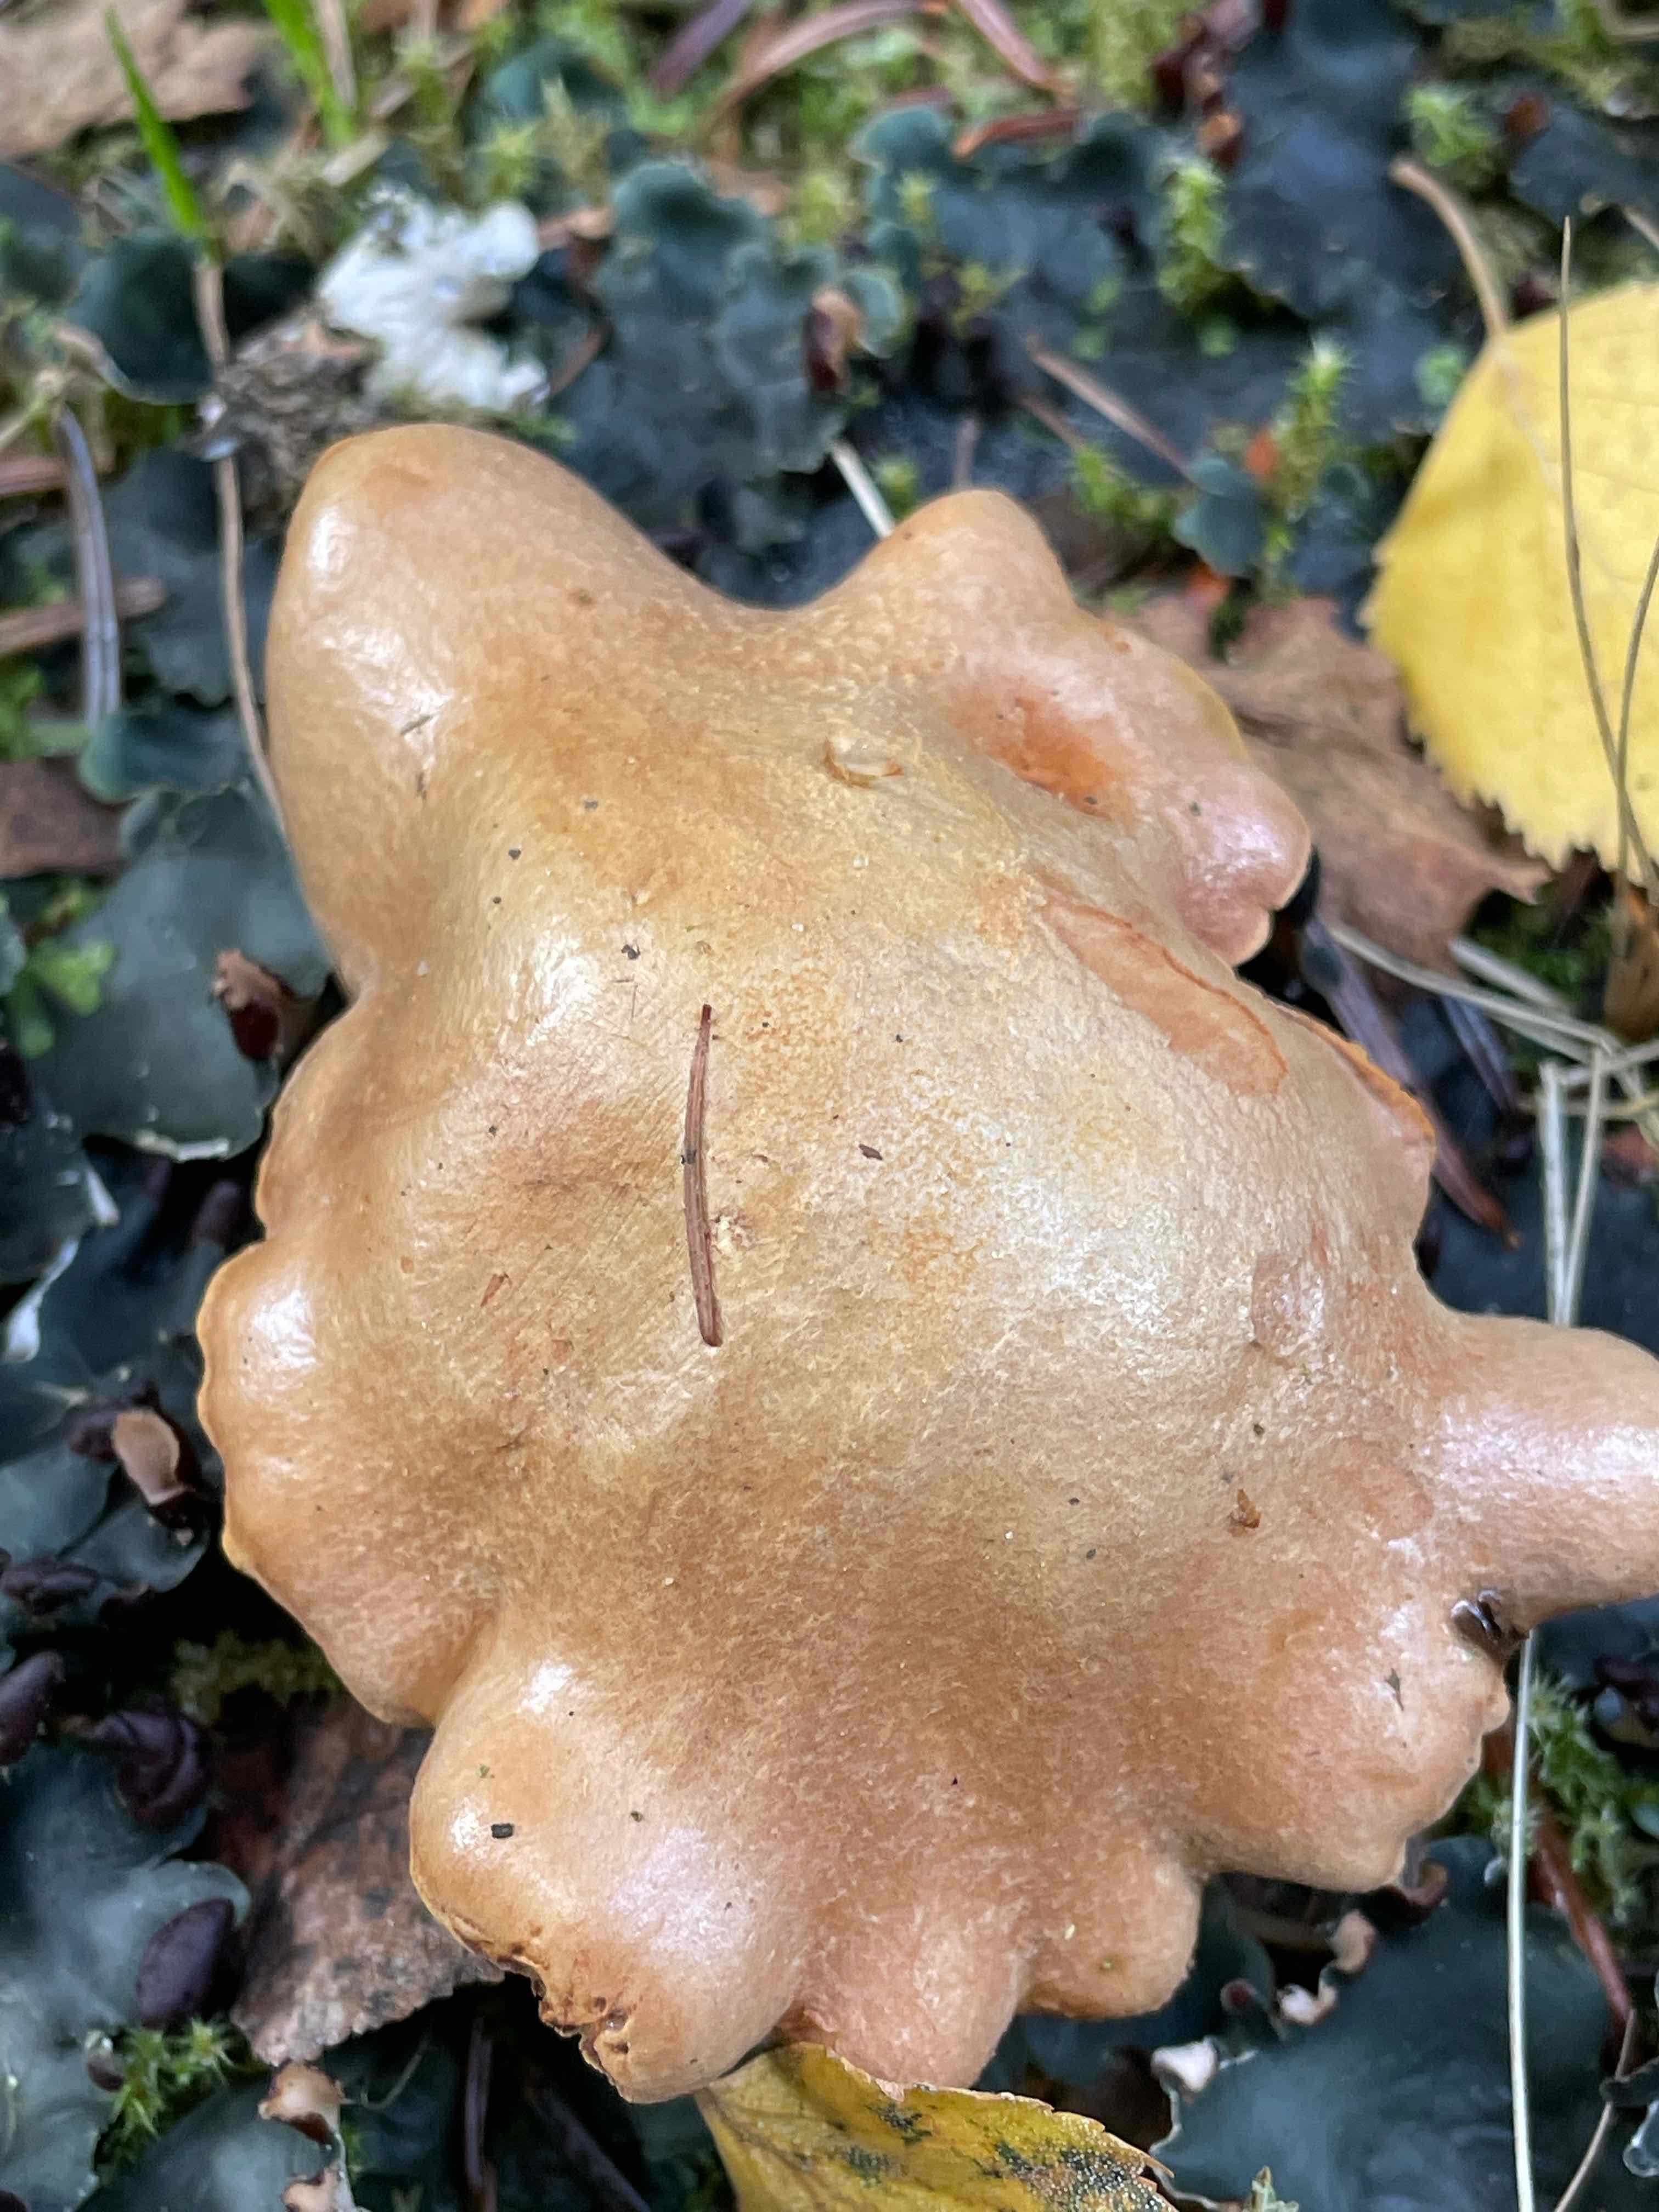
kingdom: Fungi
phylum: Basidiomycota
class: Agaricomycetes
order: Boletales
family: Boletaceae
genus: Chalciporus
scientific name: Chalciporus piperatus
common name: peberrørhat
